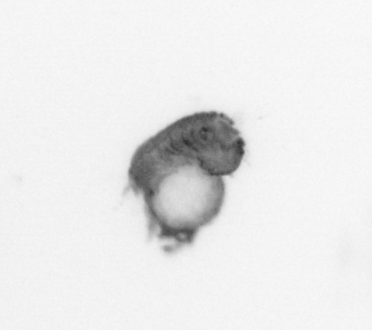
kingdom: Animalia
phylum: Annelida
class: Polychaeta
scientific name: Polychaeta
